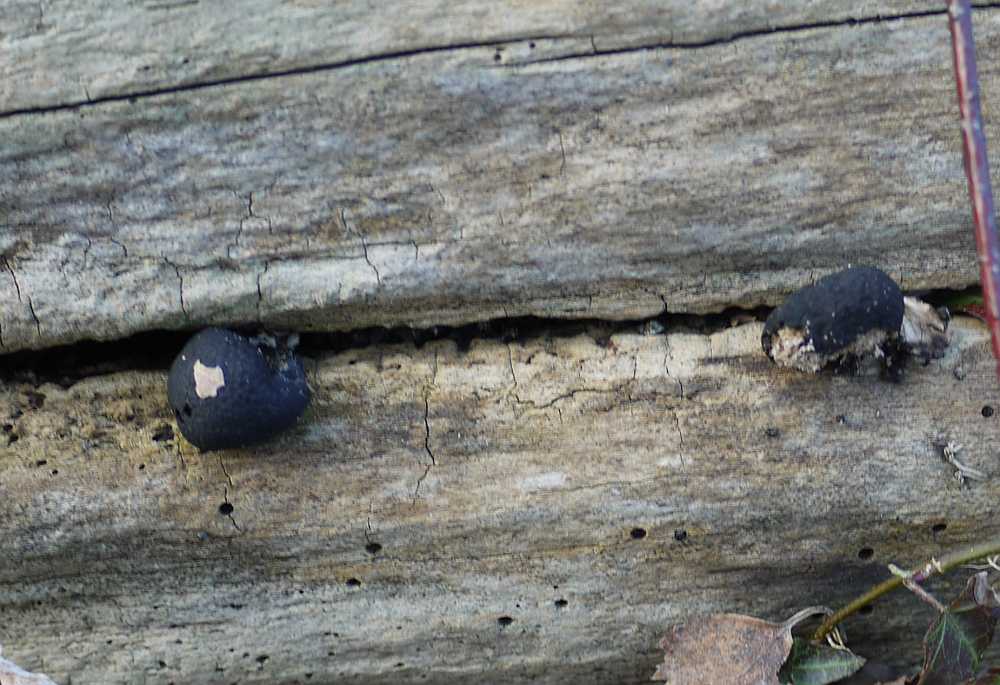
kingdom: Fungi
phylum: Ascomycota
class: Sordariomycetes
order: Xylariales
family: Xylariaceae
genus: Xylaria
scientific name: Xylaria polymorpha
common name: kølle-stødsvamp
